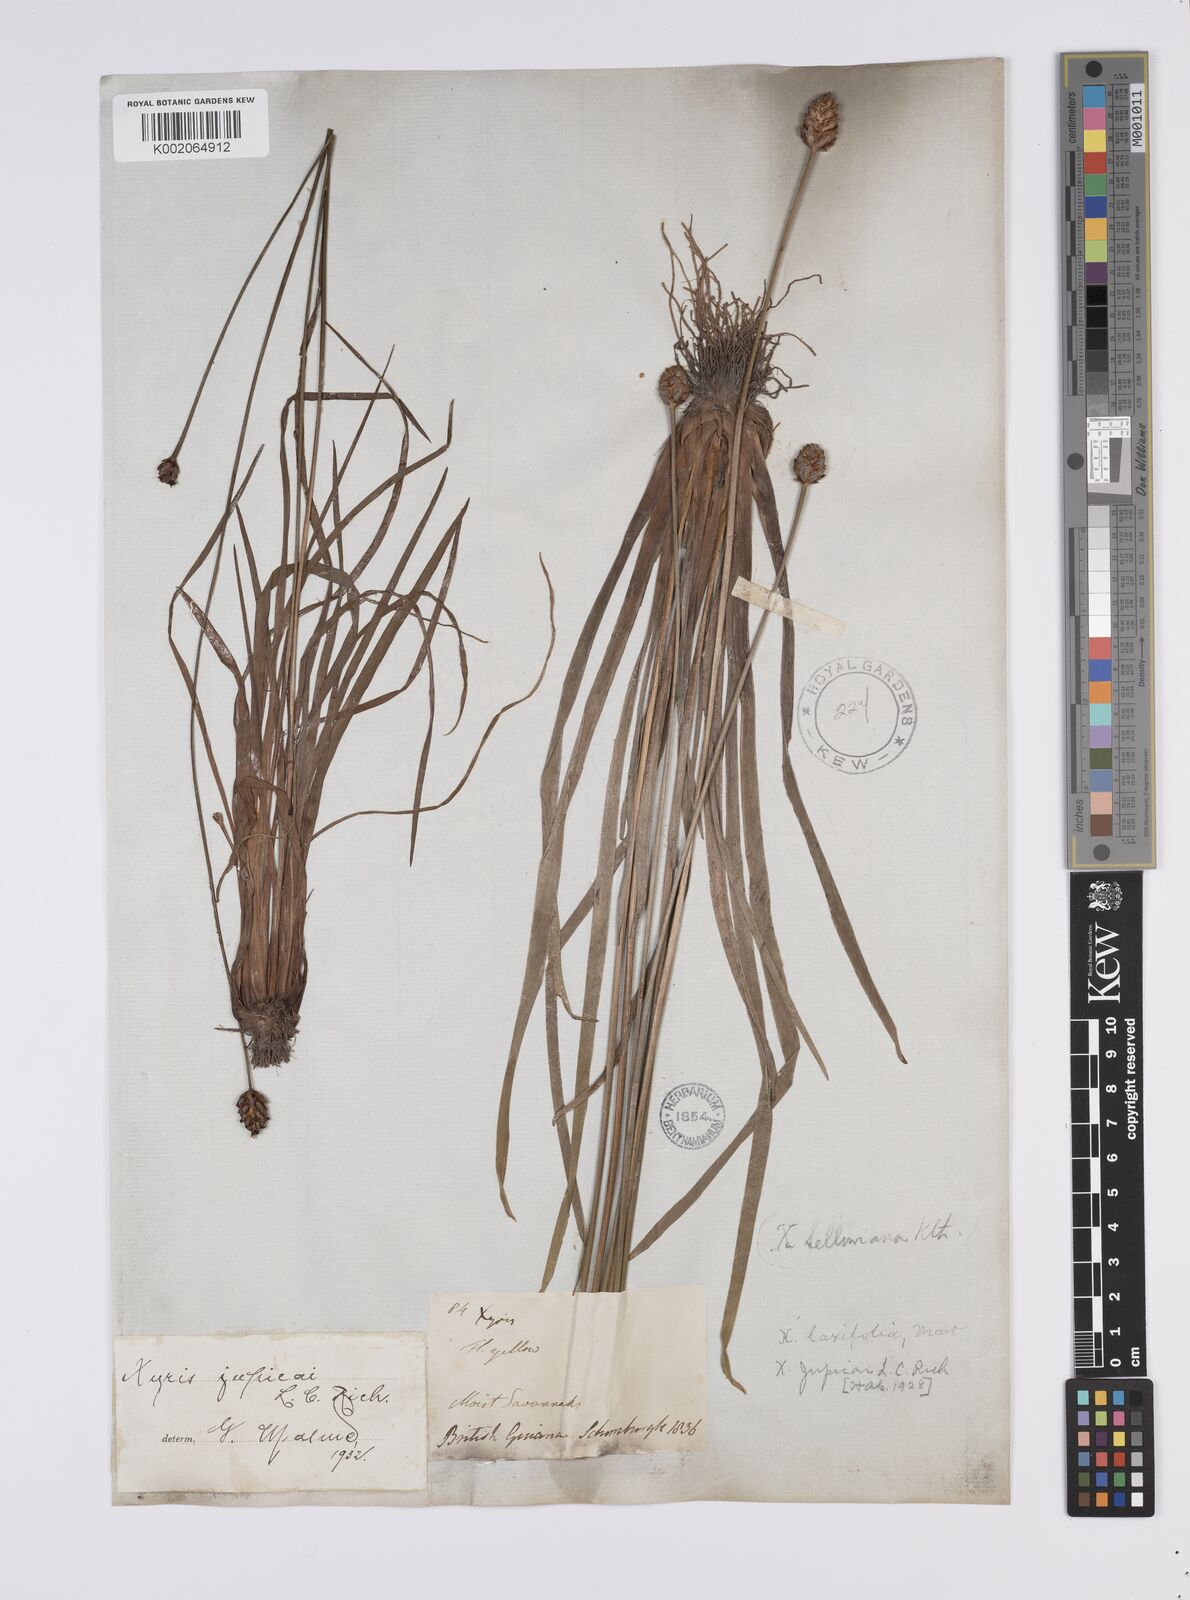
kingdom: Plantae
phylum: Tracheophyta
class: Liliopsida
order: Poales
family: Xyridaceae
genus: Xyris
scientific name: Xyris jupicai
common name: Richard's yelloweyed grass
